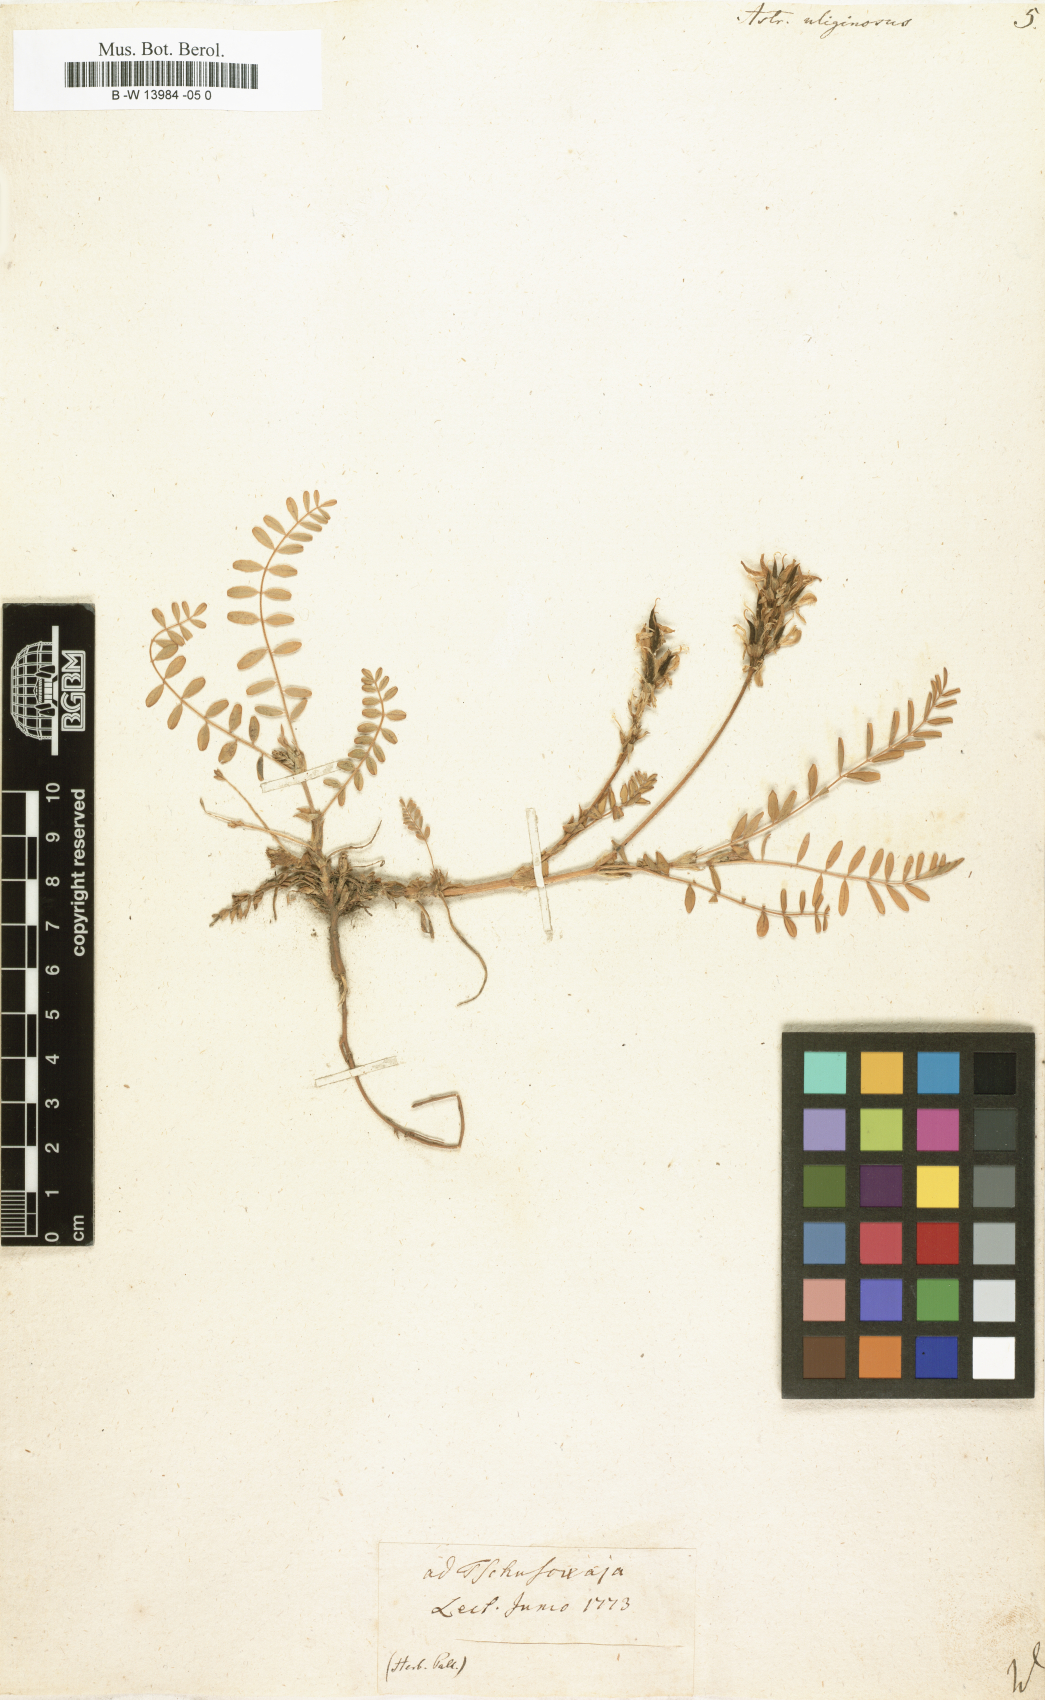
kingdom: Plantae
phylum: Tracheophyta
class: Magnoliopsida
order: Fabales
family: Fabaceae
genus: Astragalus
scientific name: Astragalus uliginosus
